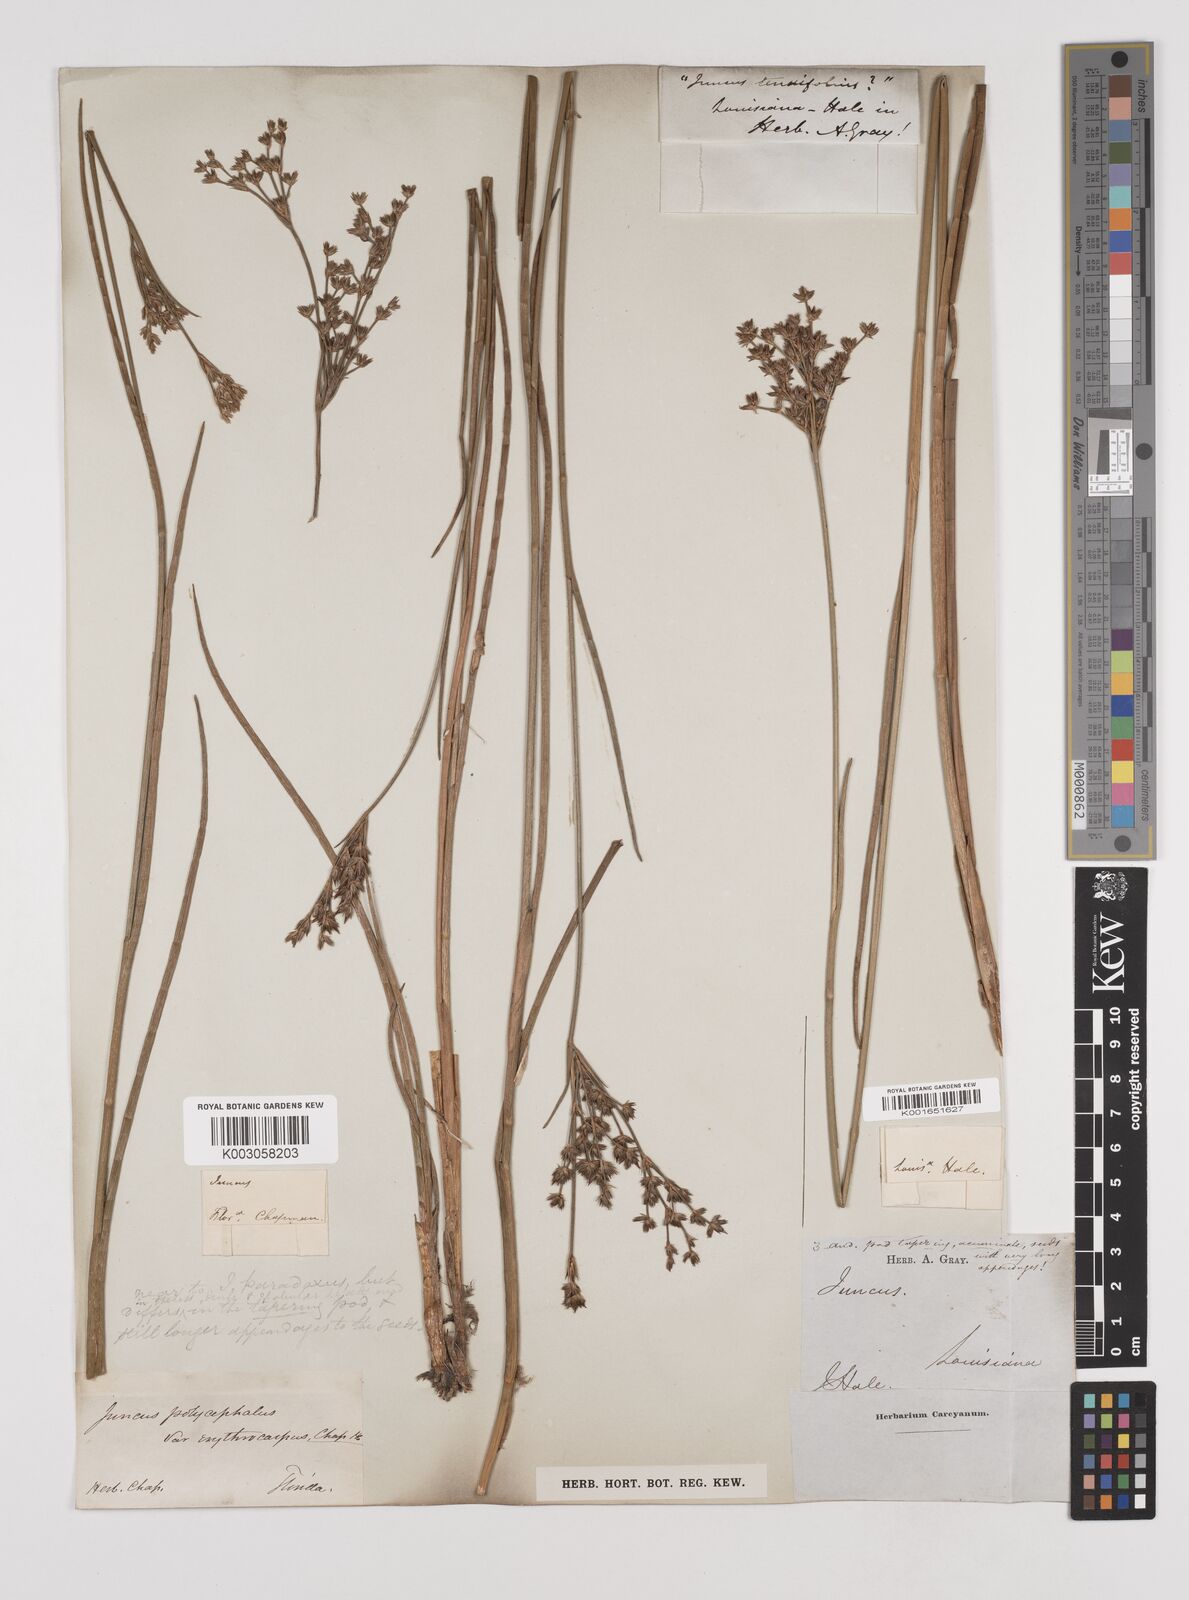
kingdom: Plantae
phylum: Tracheophyta
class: Liliopsida
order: Poales
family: Juncaceae
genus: Juncus
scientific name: Juncus
